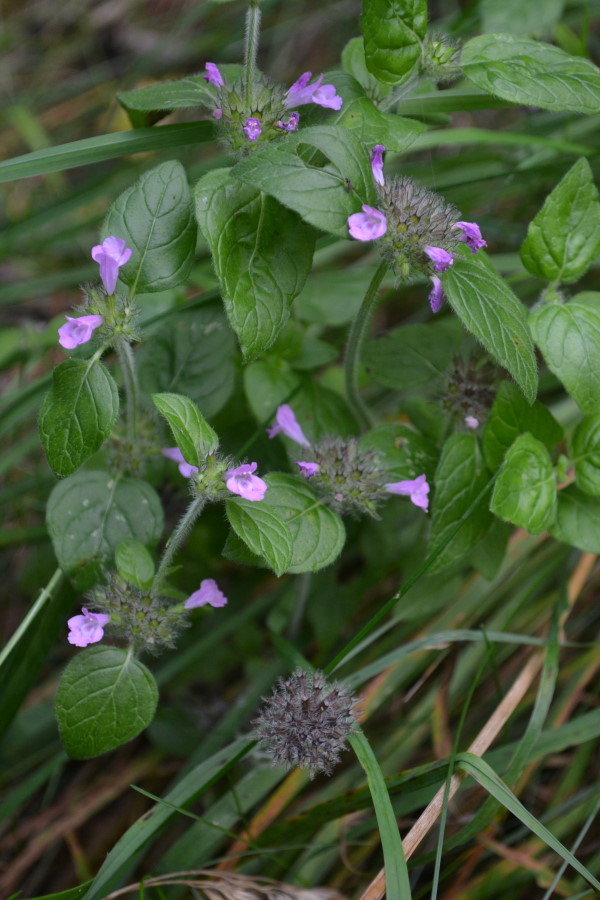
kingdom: Plantae
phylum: Tracheophyta
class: Magnoliopsida
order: Lamiales
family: Lamiaceae
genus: Clinopodium
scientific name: Clinopodium vulgare
